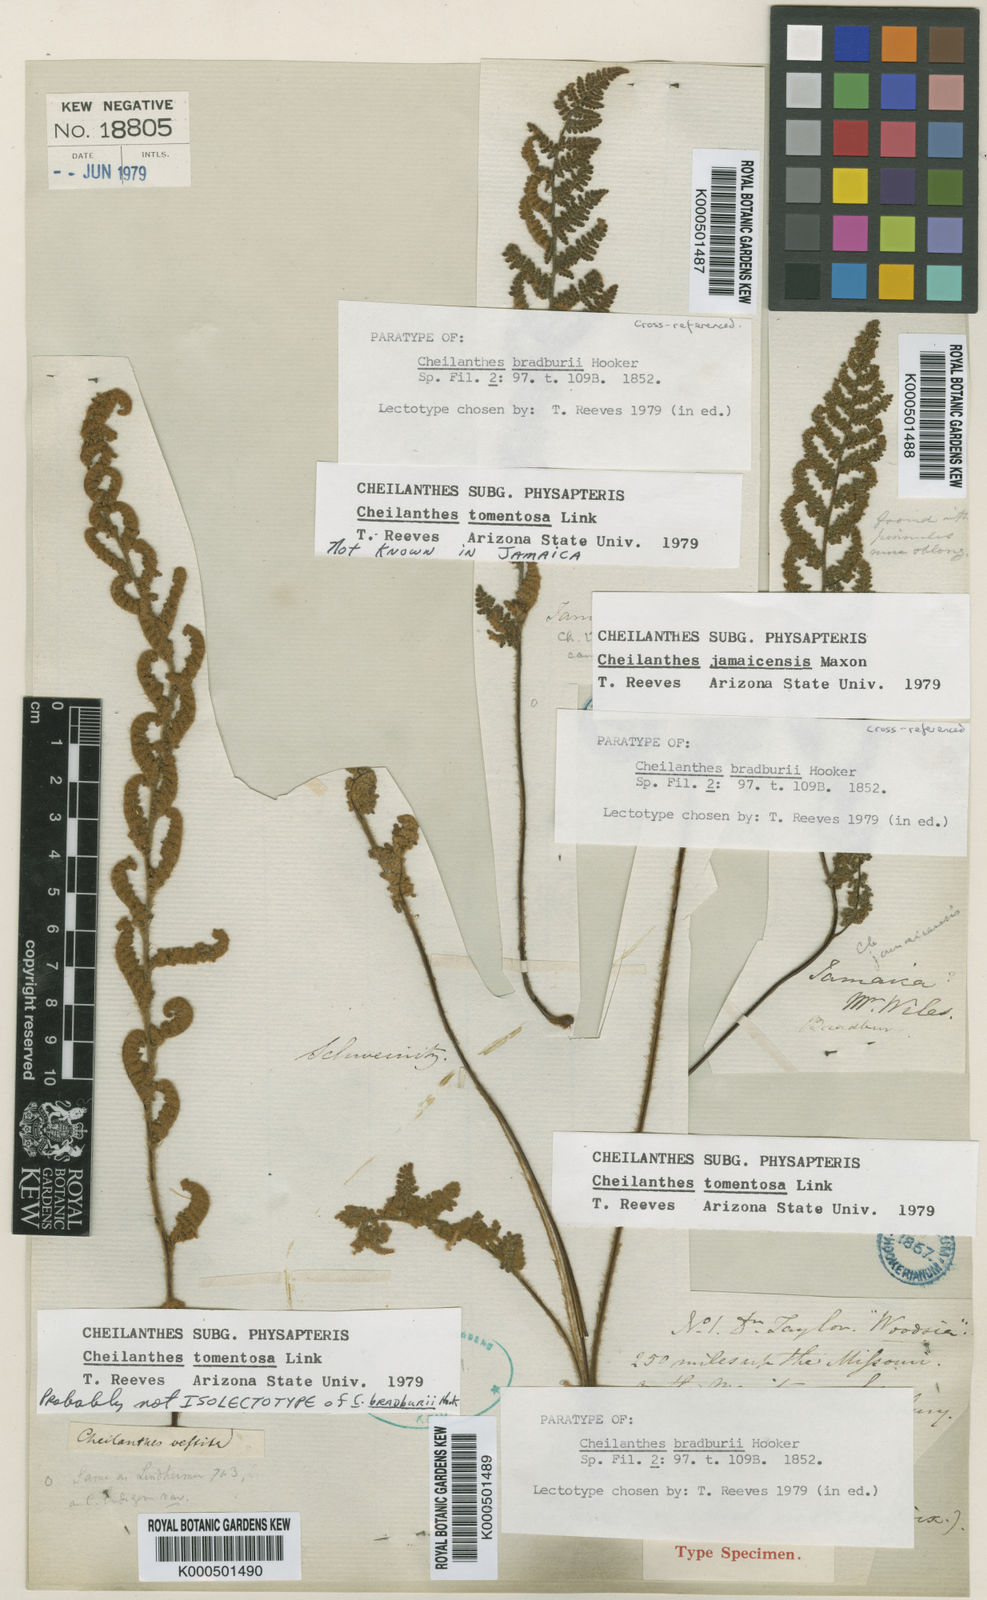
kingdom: Plantae
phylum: Tracheophyta
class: Polypodiopsida
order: Polypodiales
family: Pteridaceae
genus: Myriopteris
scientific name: Myriopteris tomentosa
